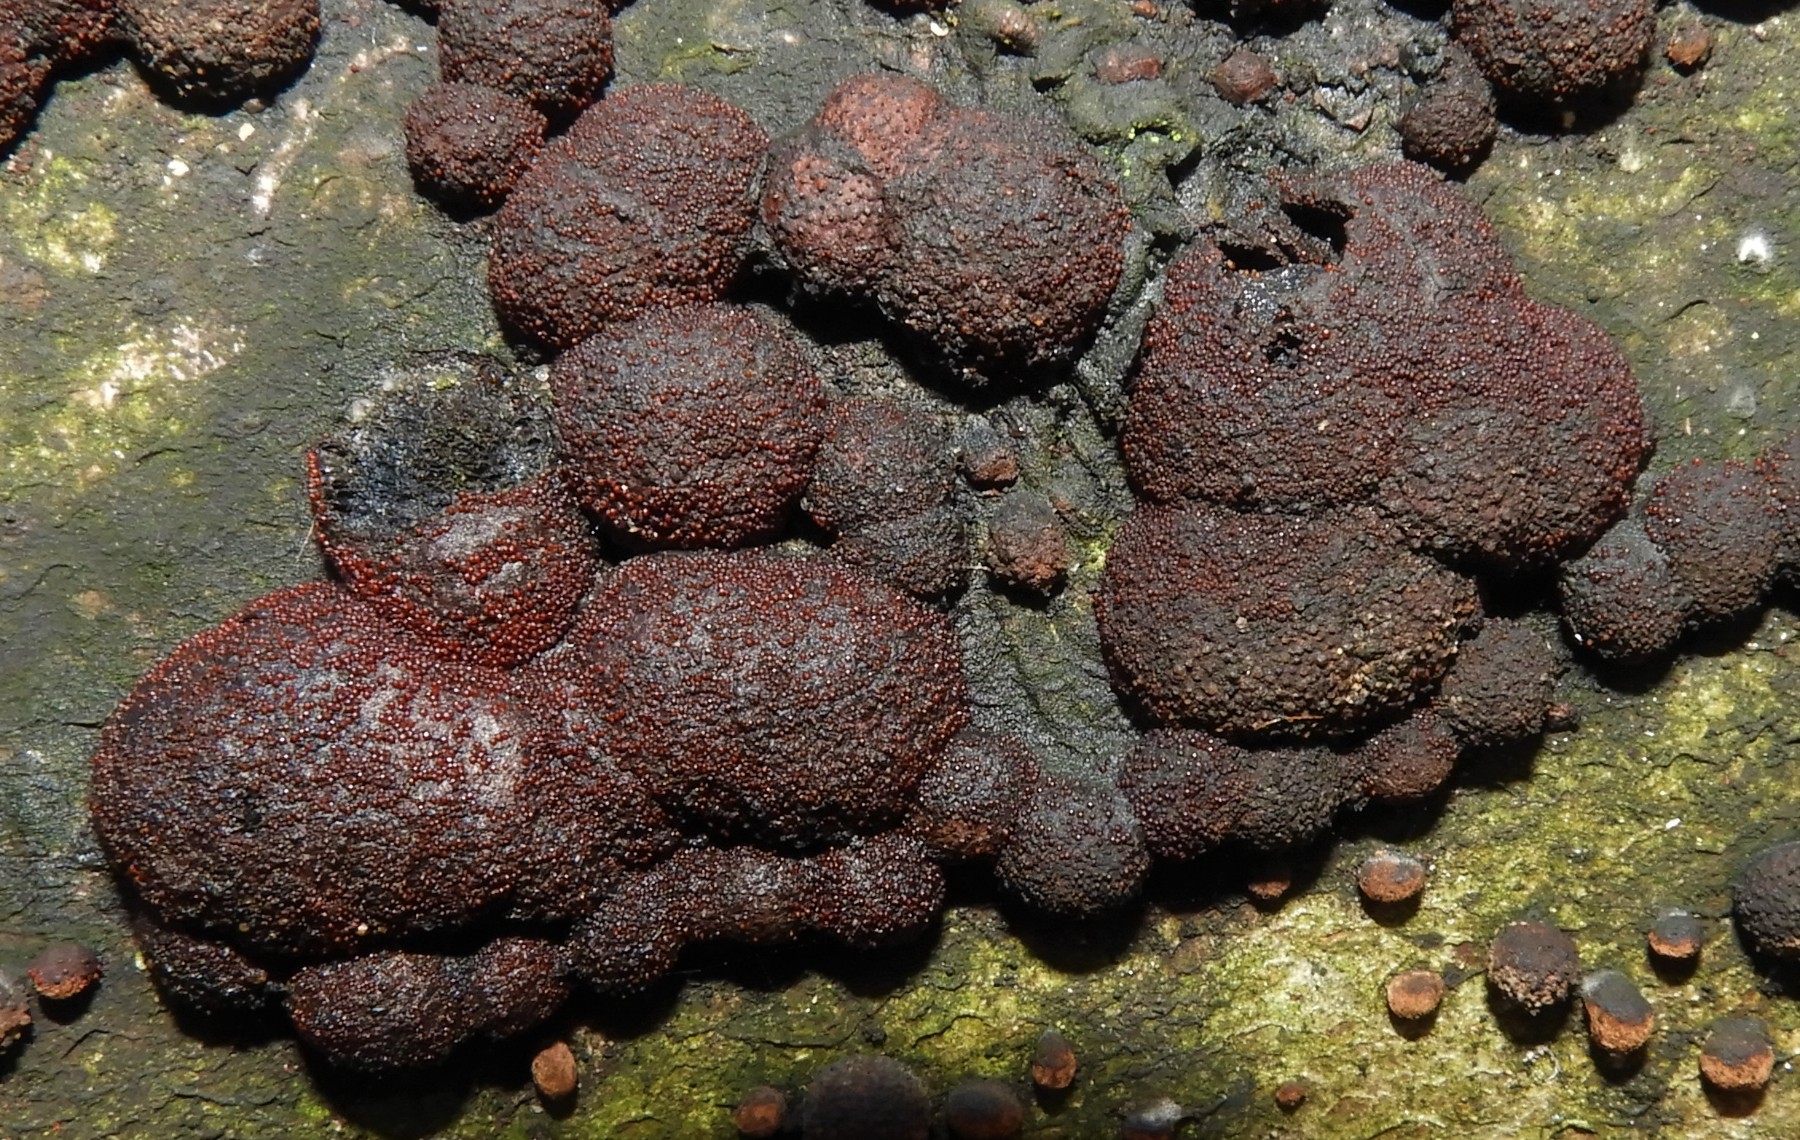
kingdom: Fungi
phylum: Ascomycota
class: Sordariomycetes
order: Hypocreales
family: Nectriaceae
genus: Cosmospora
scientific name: Cosmospora arxii
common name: kuljordbær-cinnobersvamp
